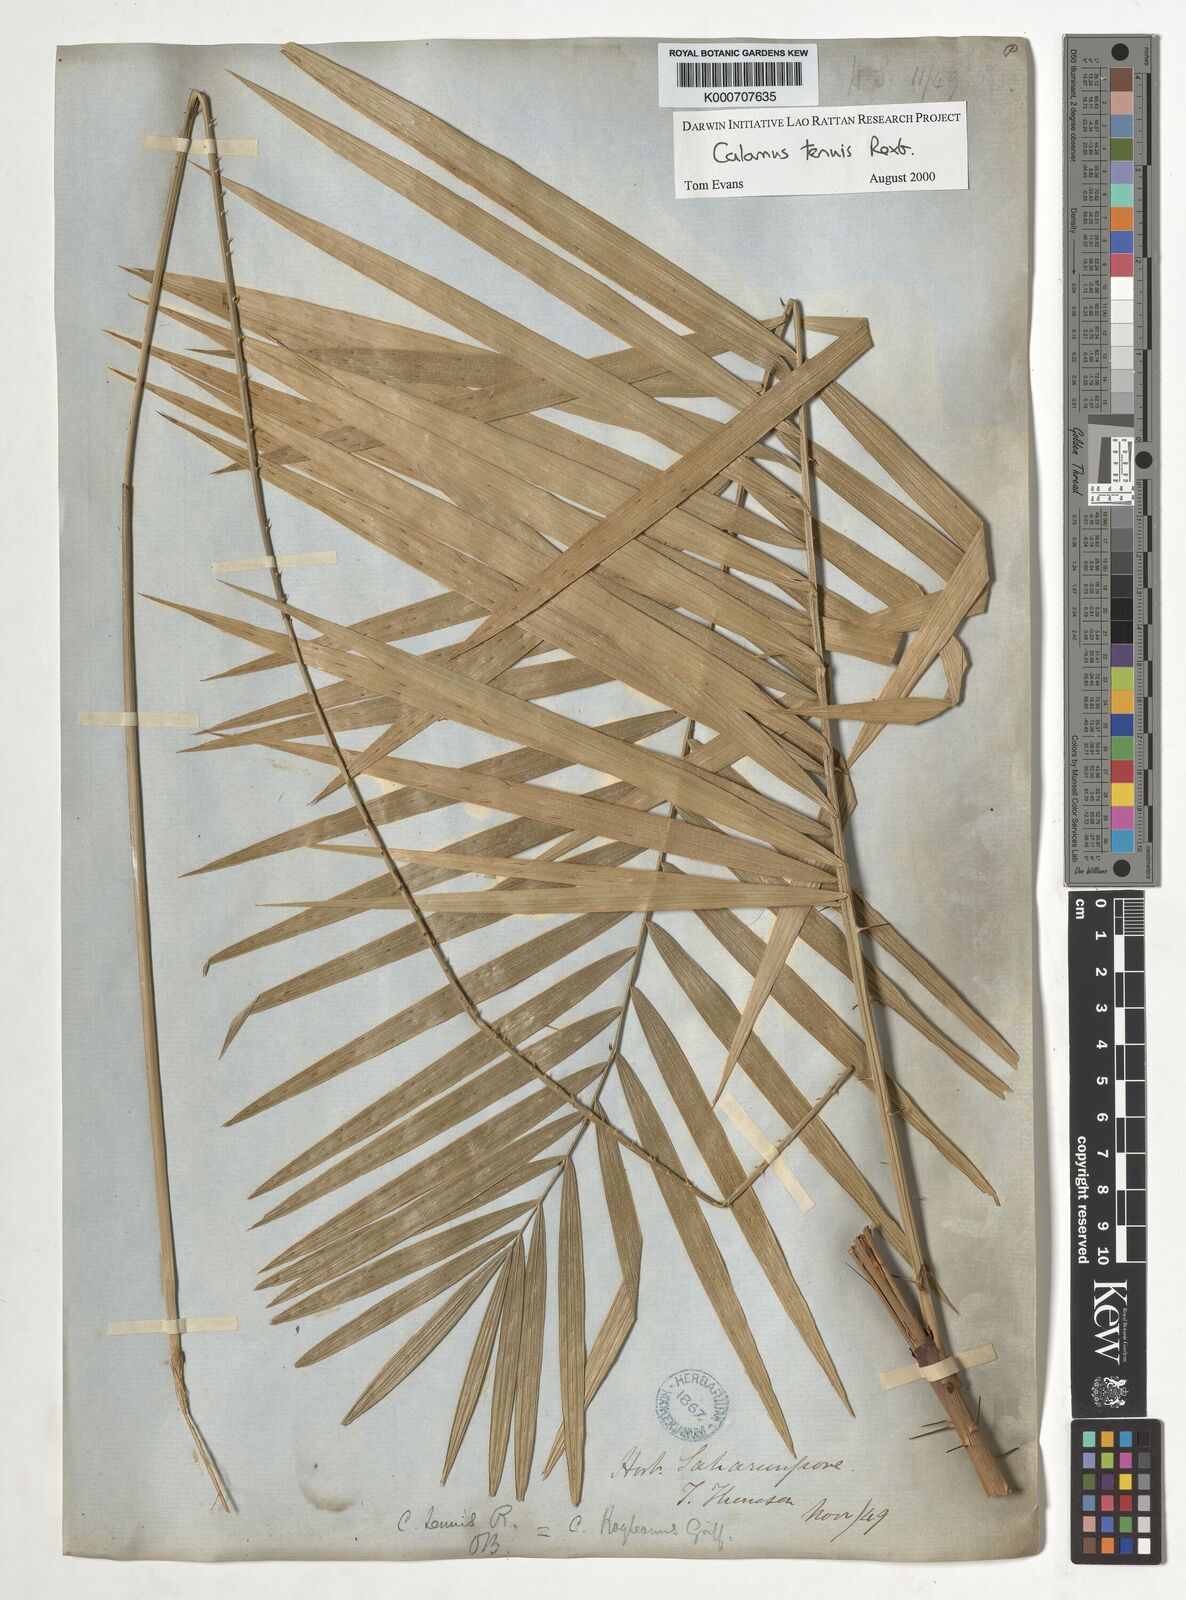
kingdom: Plantae
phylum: Tracheophyta
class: Liliopsida
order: Arecales
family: Arecaceae
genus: Calamus
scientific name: Calamus tenuis
